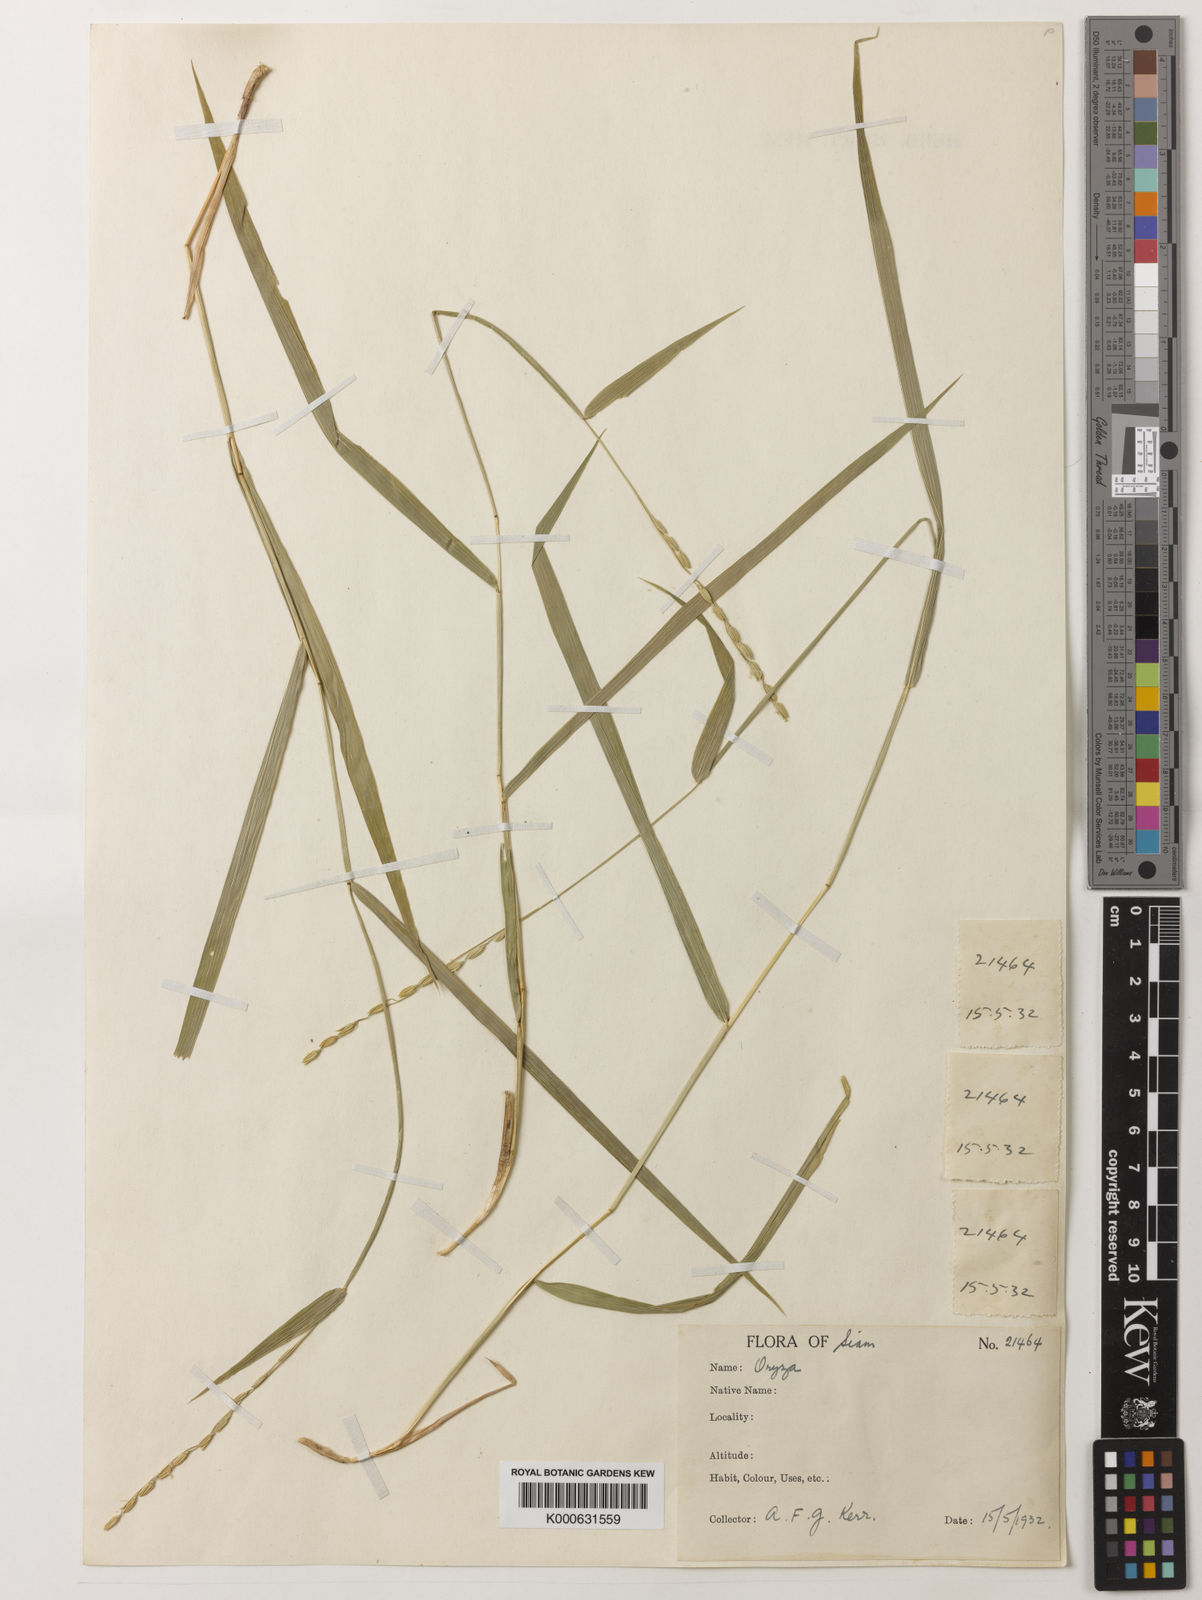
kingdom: Plantae
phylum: Tracheophyta
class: Liliopsida
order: Poales
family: Poaceae
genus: Oryza
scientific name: Oryza meyeriana
